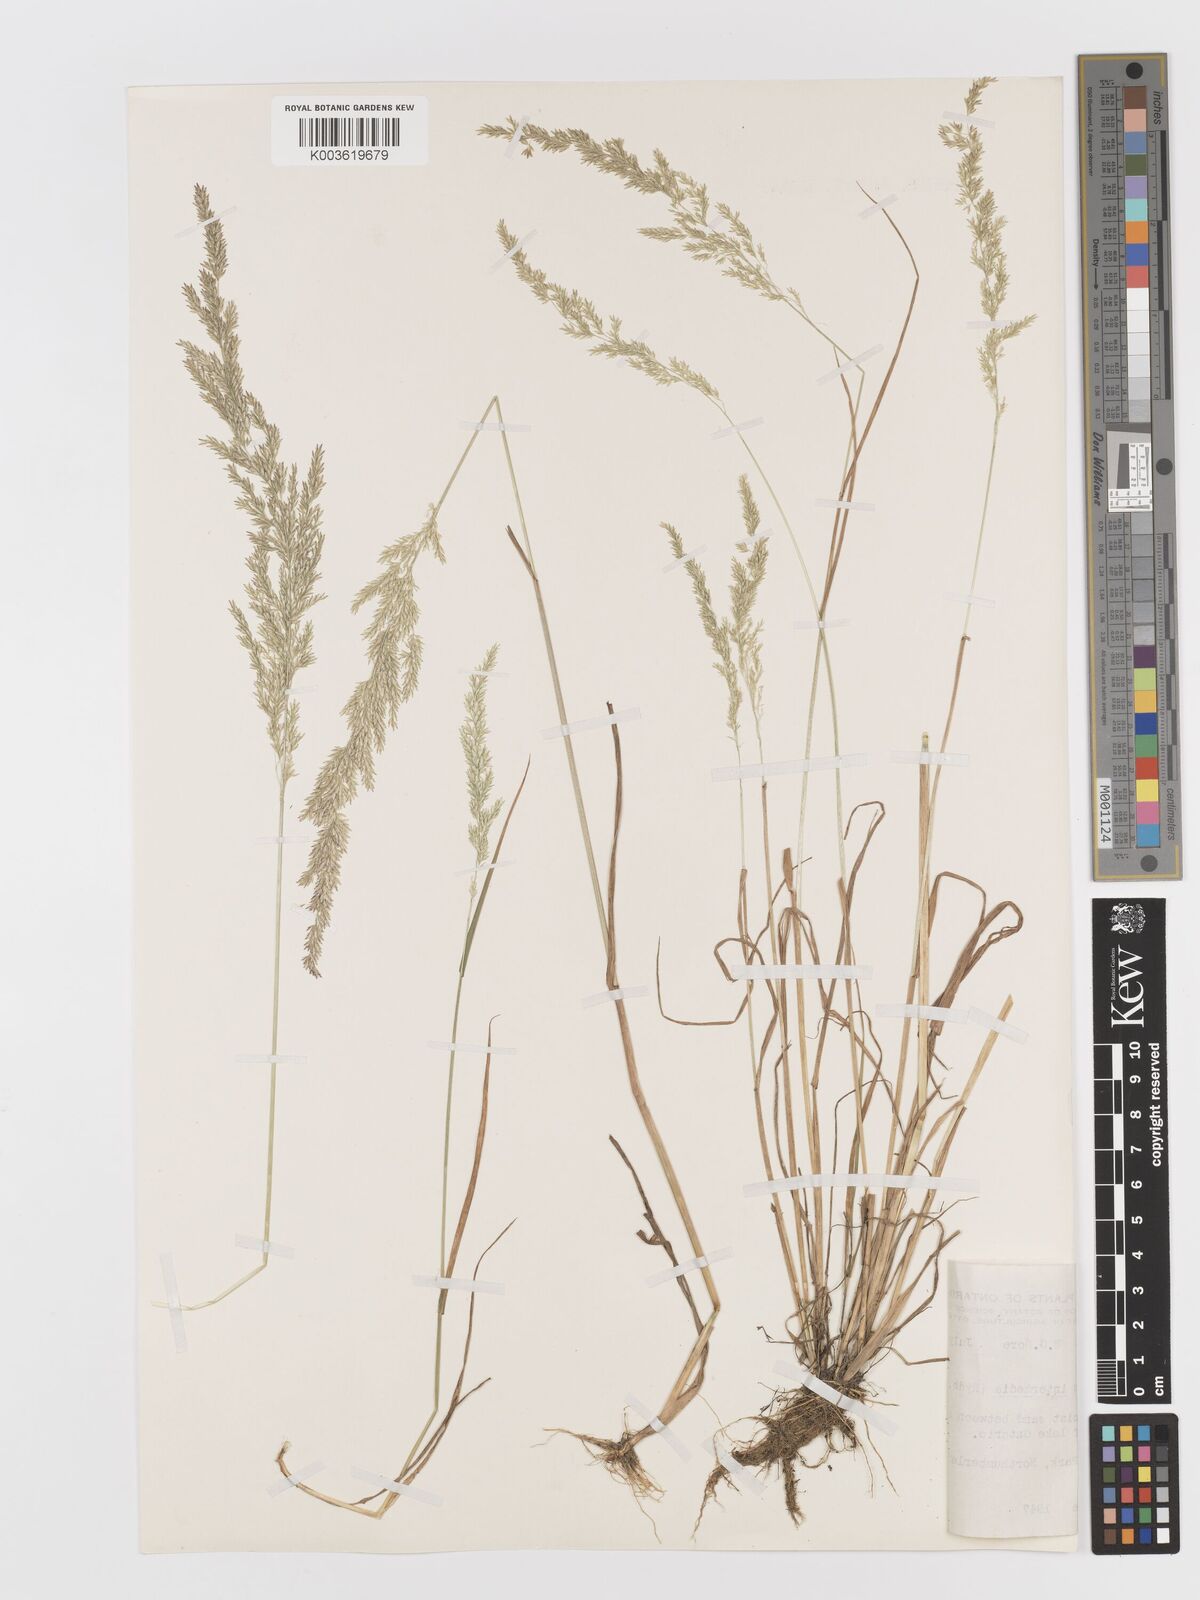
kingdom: Plantae
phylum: Tracheophyta
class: Liliopsida
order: Poales
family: Poaceae
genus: Sphenopholis
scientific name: Sphenopholis obtusata
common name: Prairie grass
